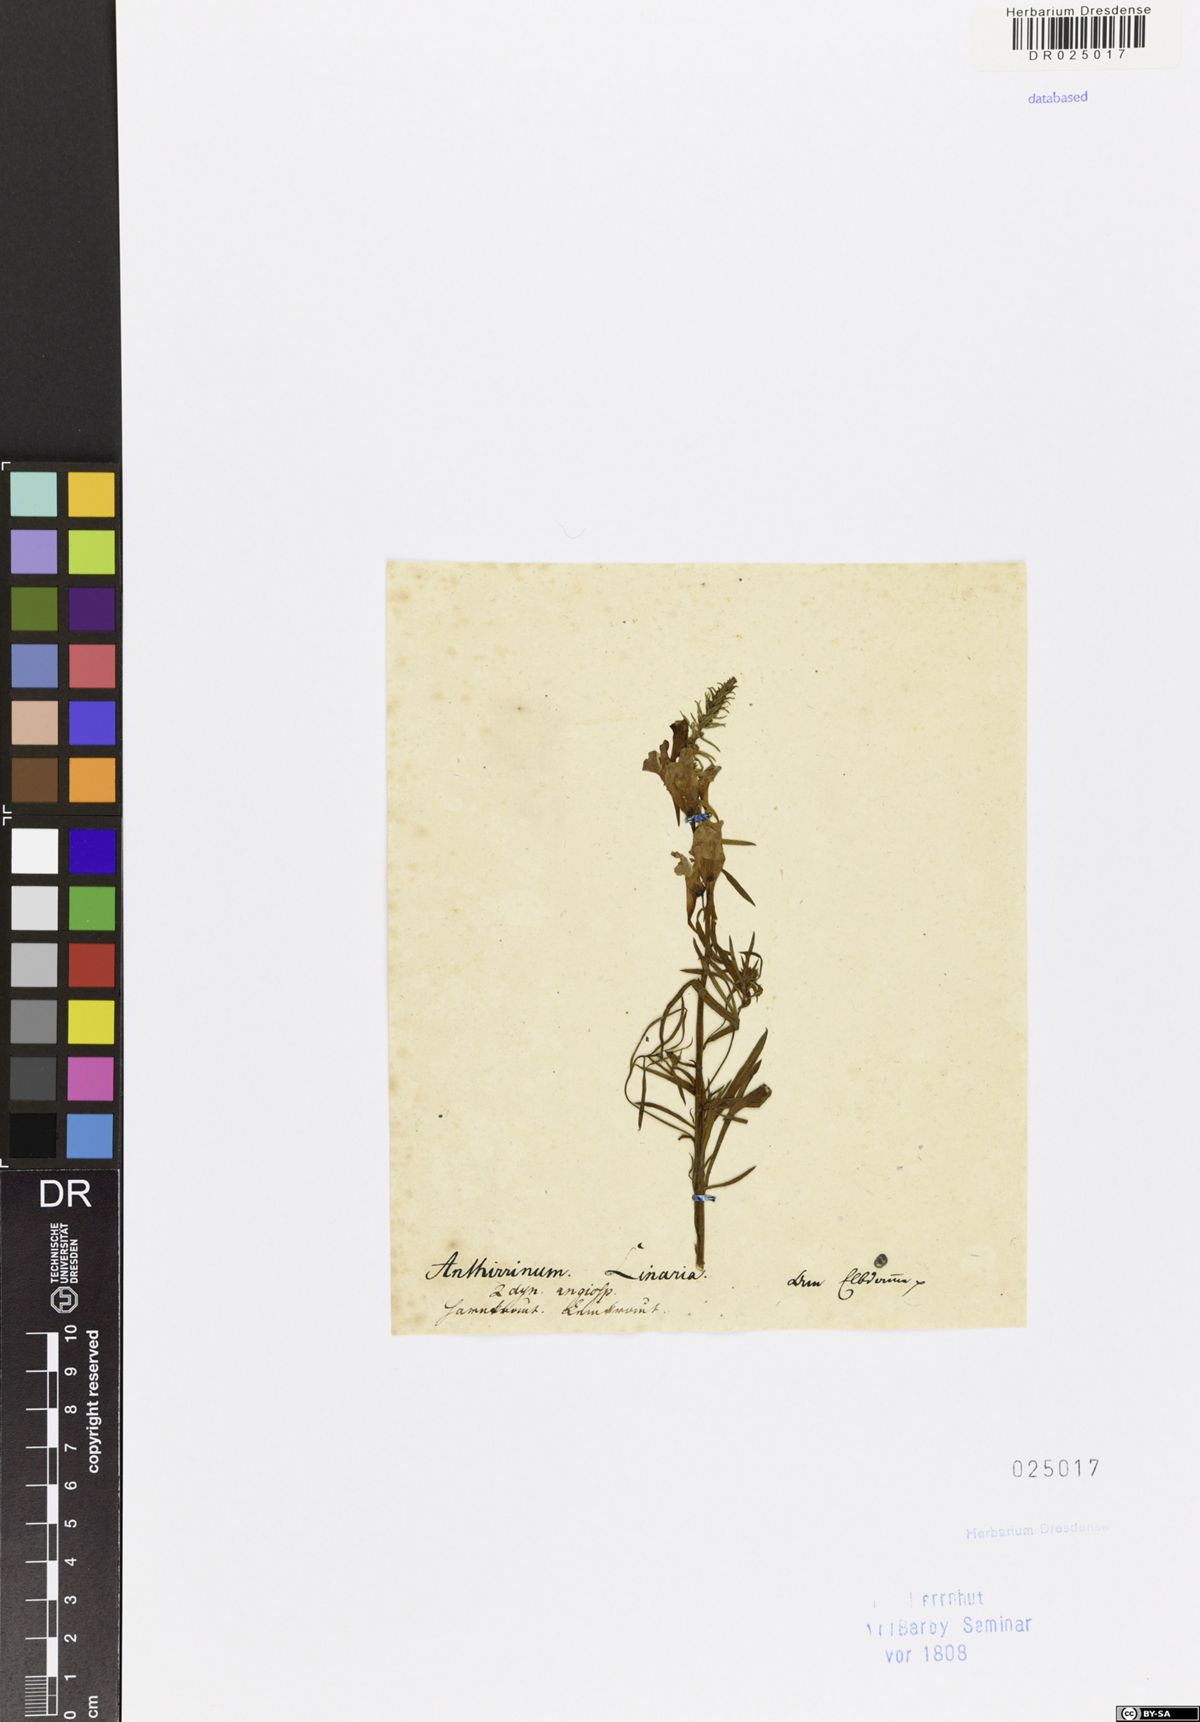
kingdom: Plantae
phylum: Tracheophyta
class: Magnoliopsida
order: Lamiales
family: Plantaginaceae
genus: Linaria
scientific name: Linaria vulgaris
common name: Butter and eggs
